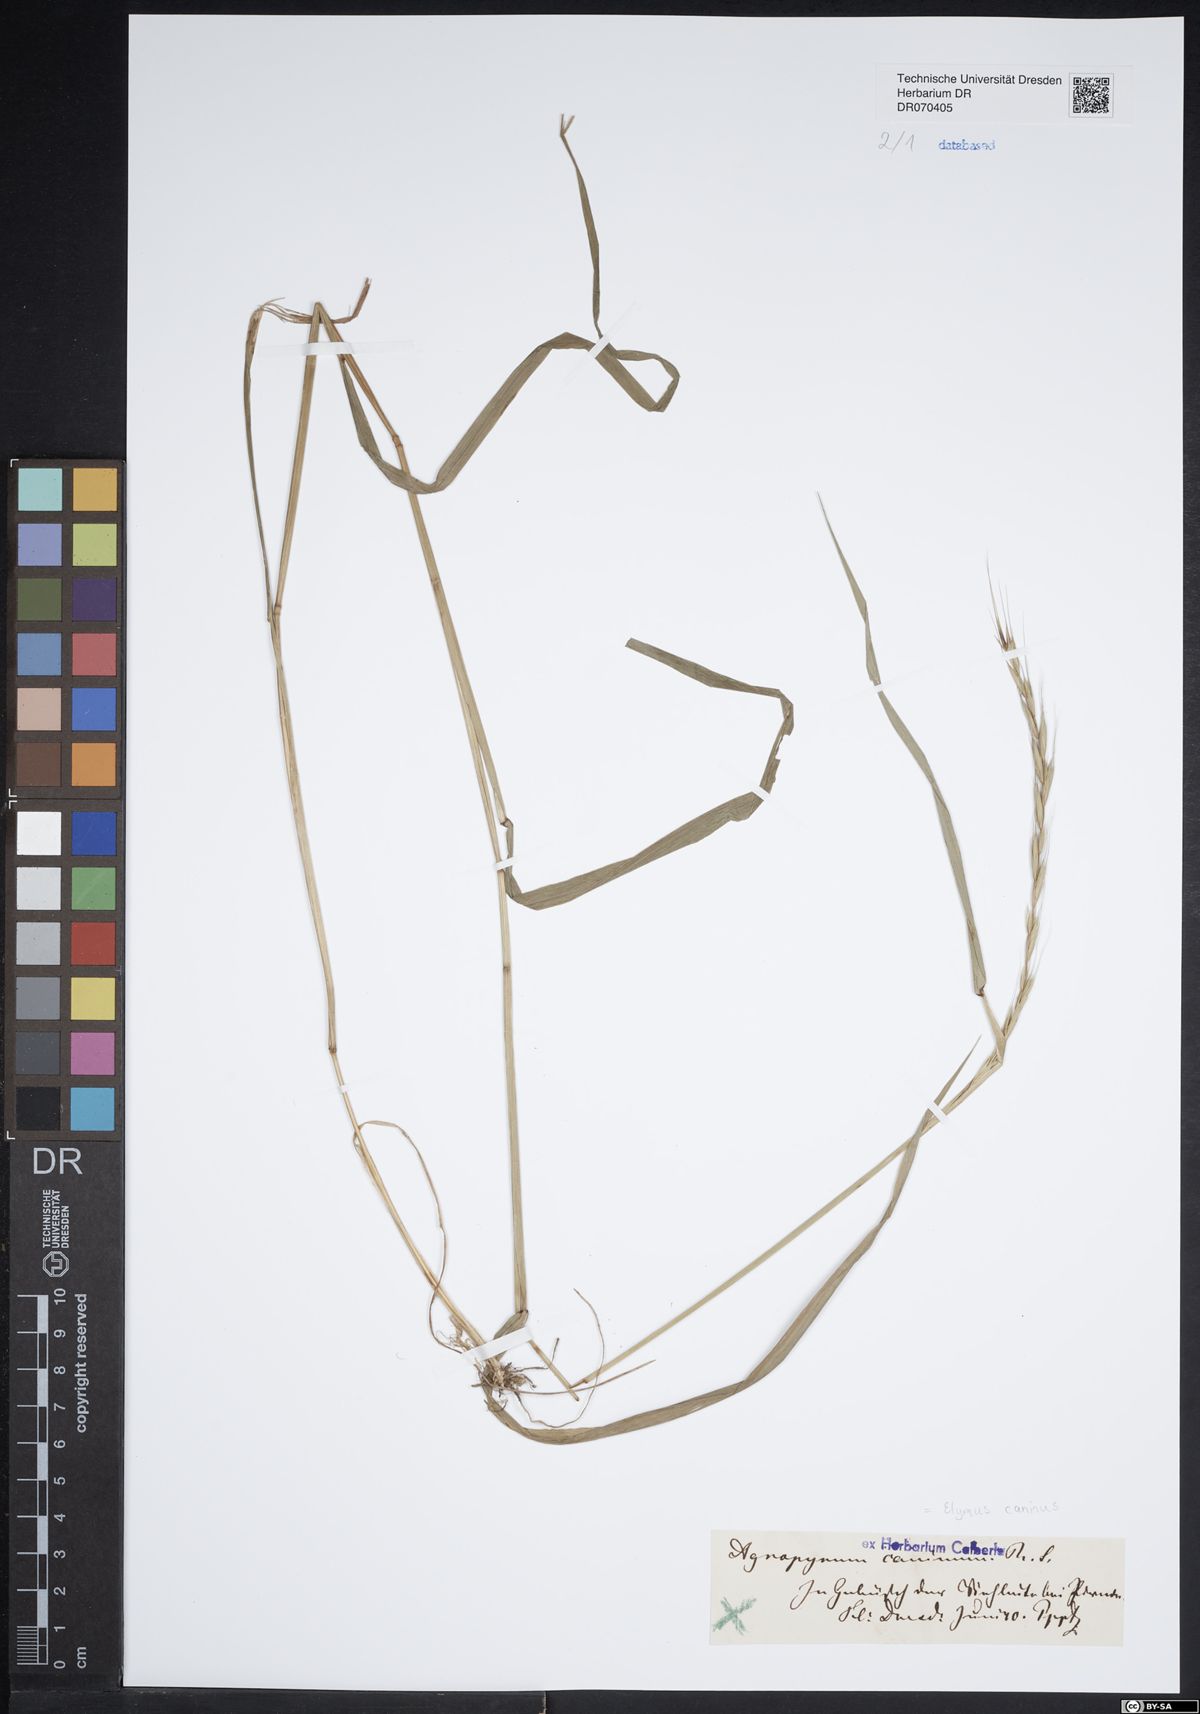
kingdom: Plantae
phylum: Tracheophyta
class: Liliopsida
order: Poales
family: Poaceae
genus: Elymus
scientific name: Elymus caninus
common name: Bearded couch
